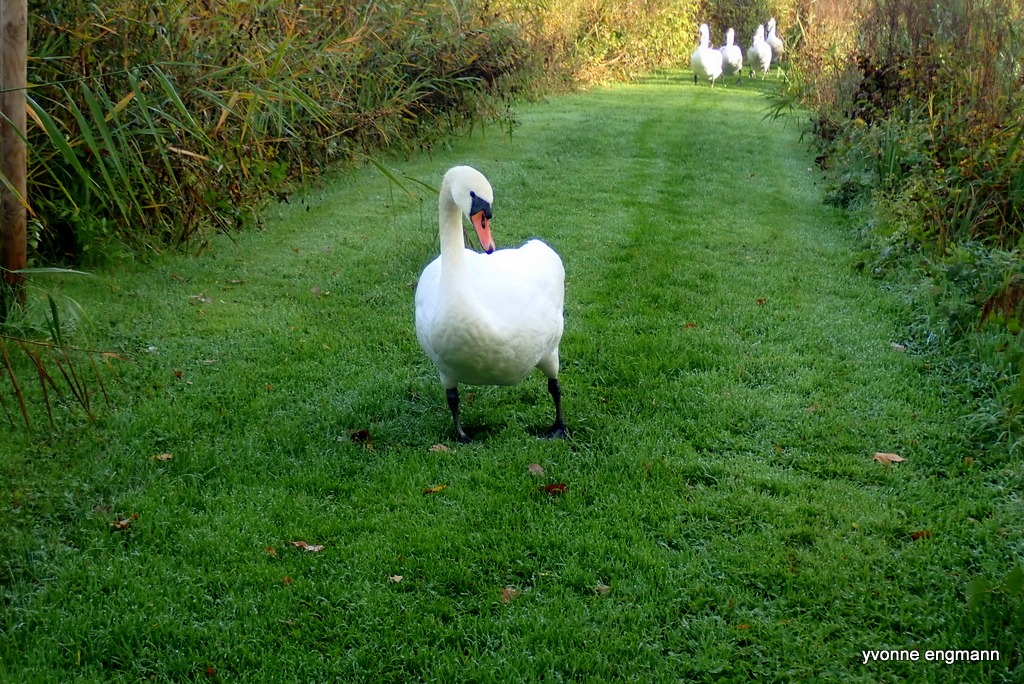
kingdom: Animalia
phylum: Chordata
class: Aves
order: Anseriformes
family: Anatidae
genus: Cygnus
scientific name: Cygnus olor
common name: Knopsvane
